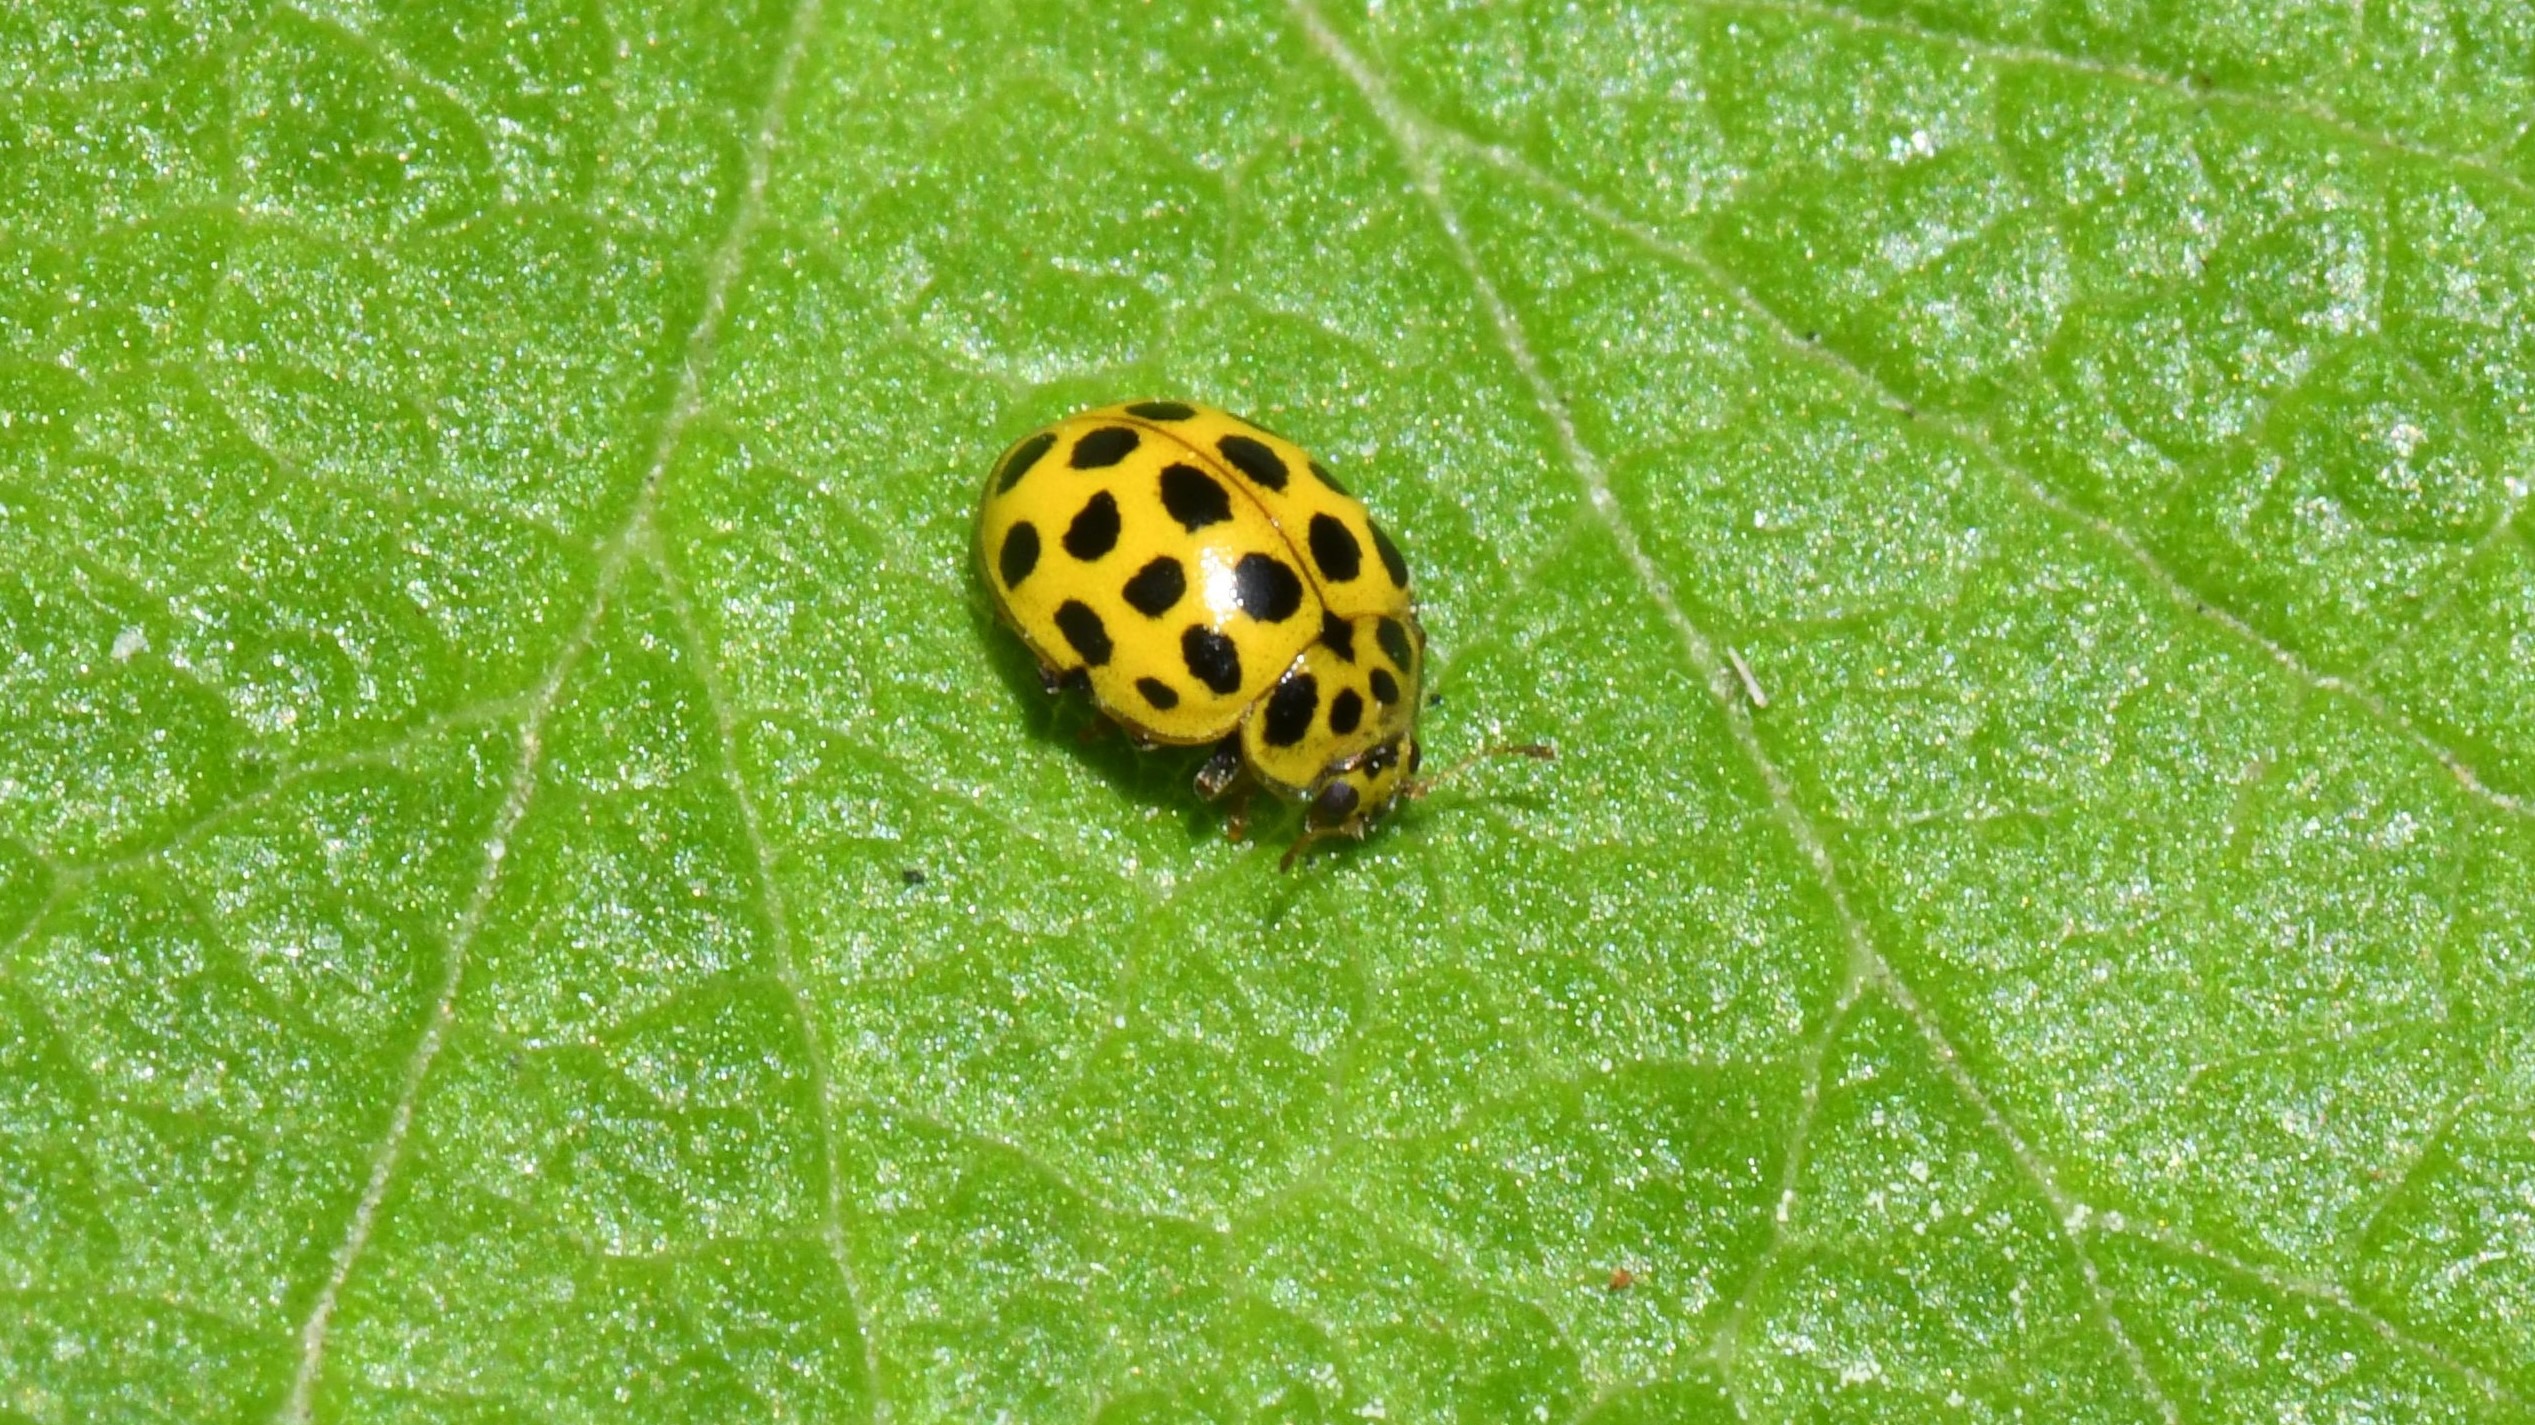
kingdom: Animalia
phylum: Arthropoda
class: Insecta
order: Coleoptera
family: Coccinellidae
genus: Psyllobora
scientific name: Psyllobora vigintiduopunctata
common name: Toogtyveplettet mariehøne
